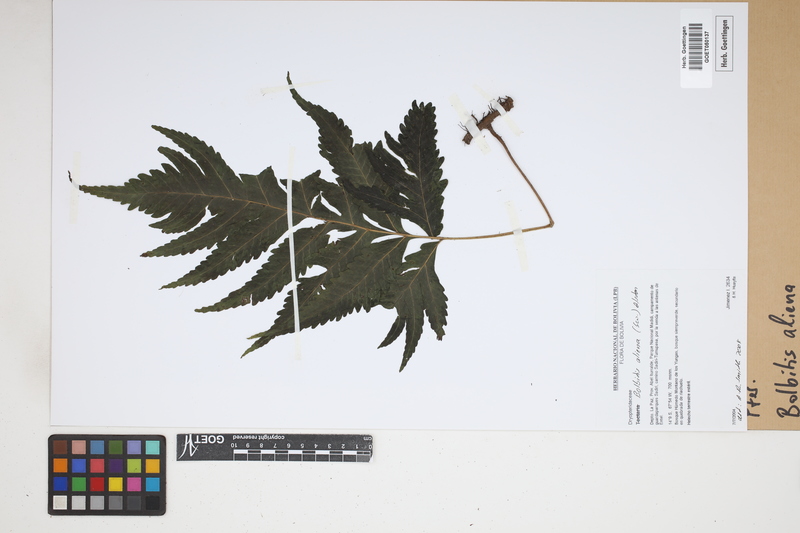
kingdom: Plantae
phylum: Tracheophyta
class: Polypodiopsida
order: Polypodiales
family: Dryopteridaceae
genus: Bolbitis
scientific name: Bolbitis aliena
